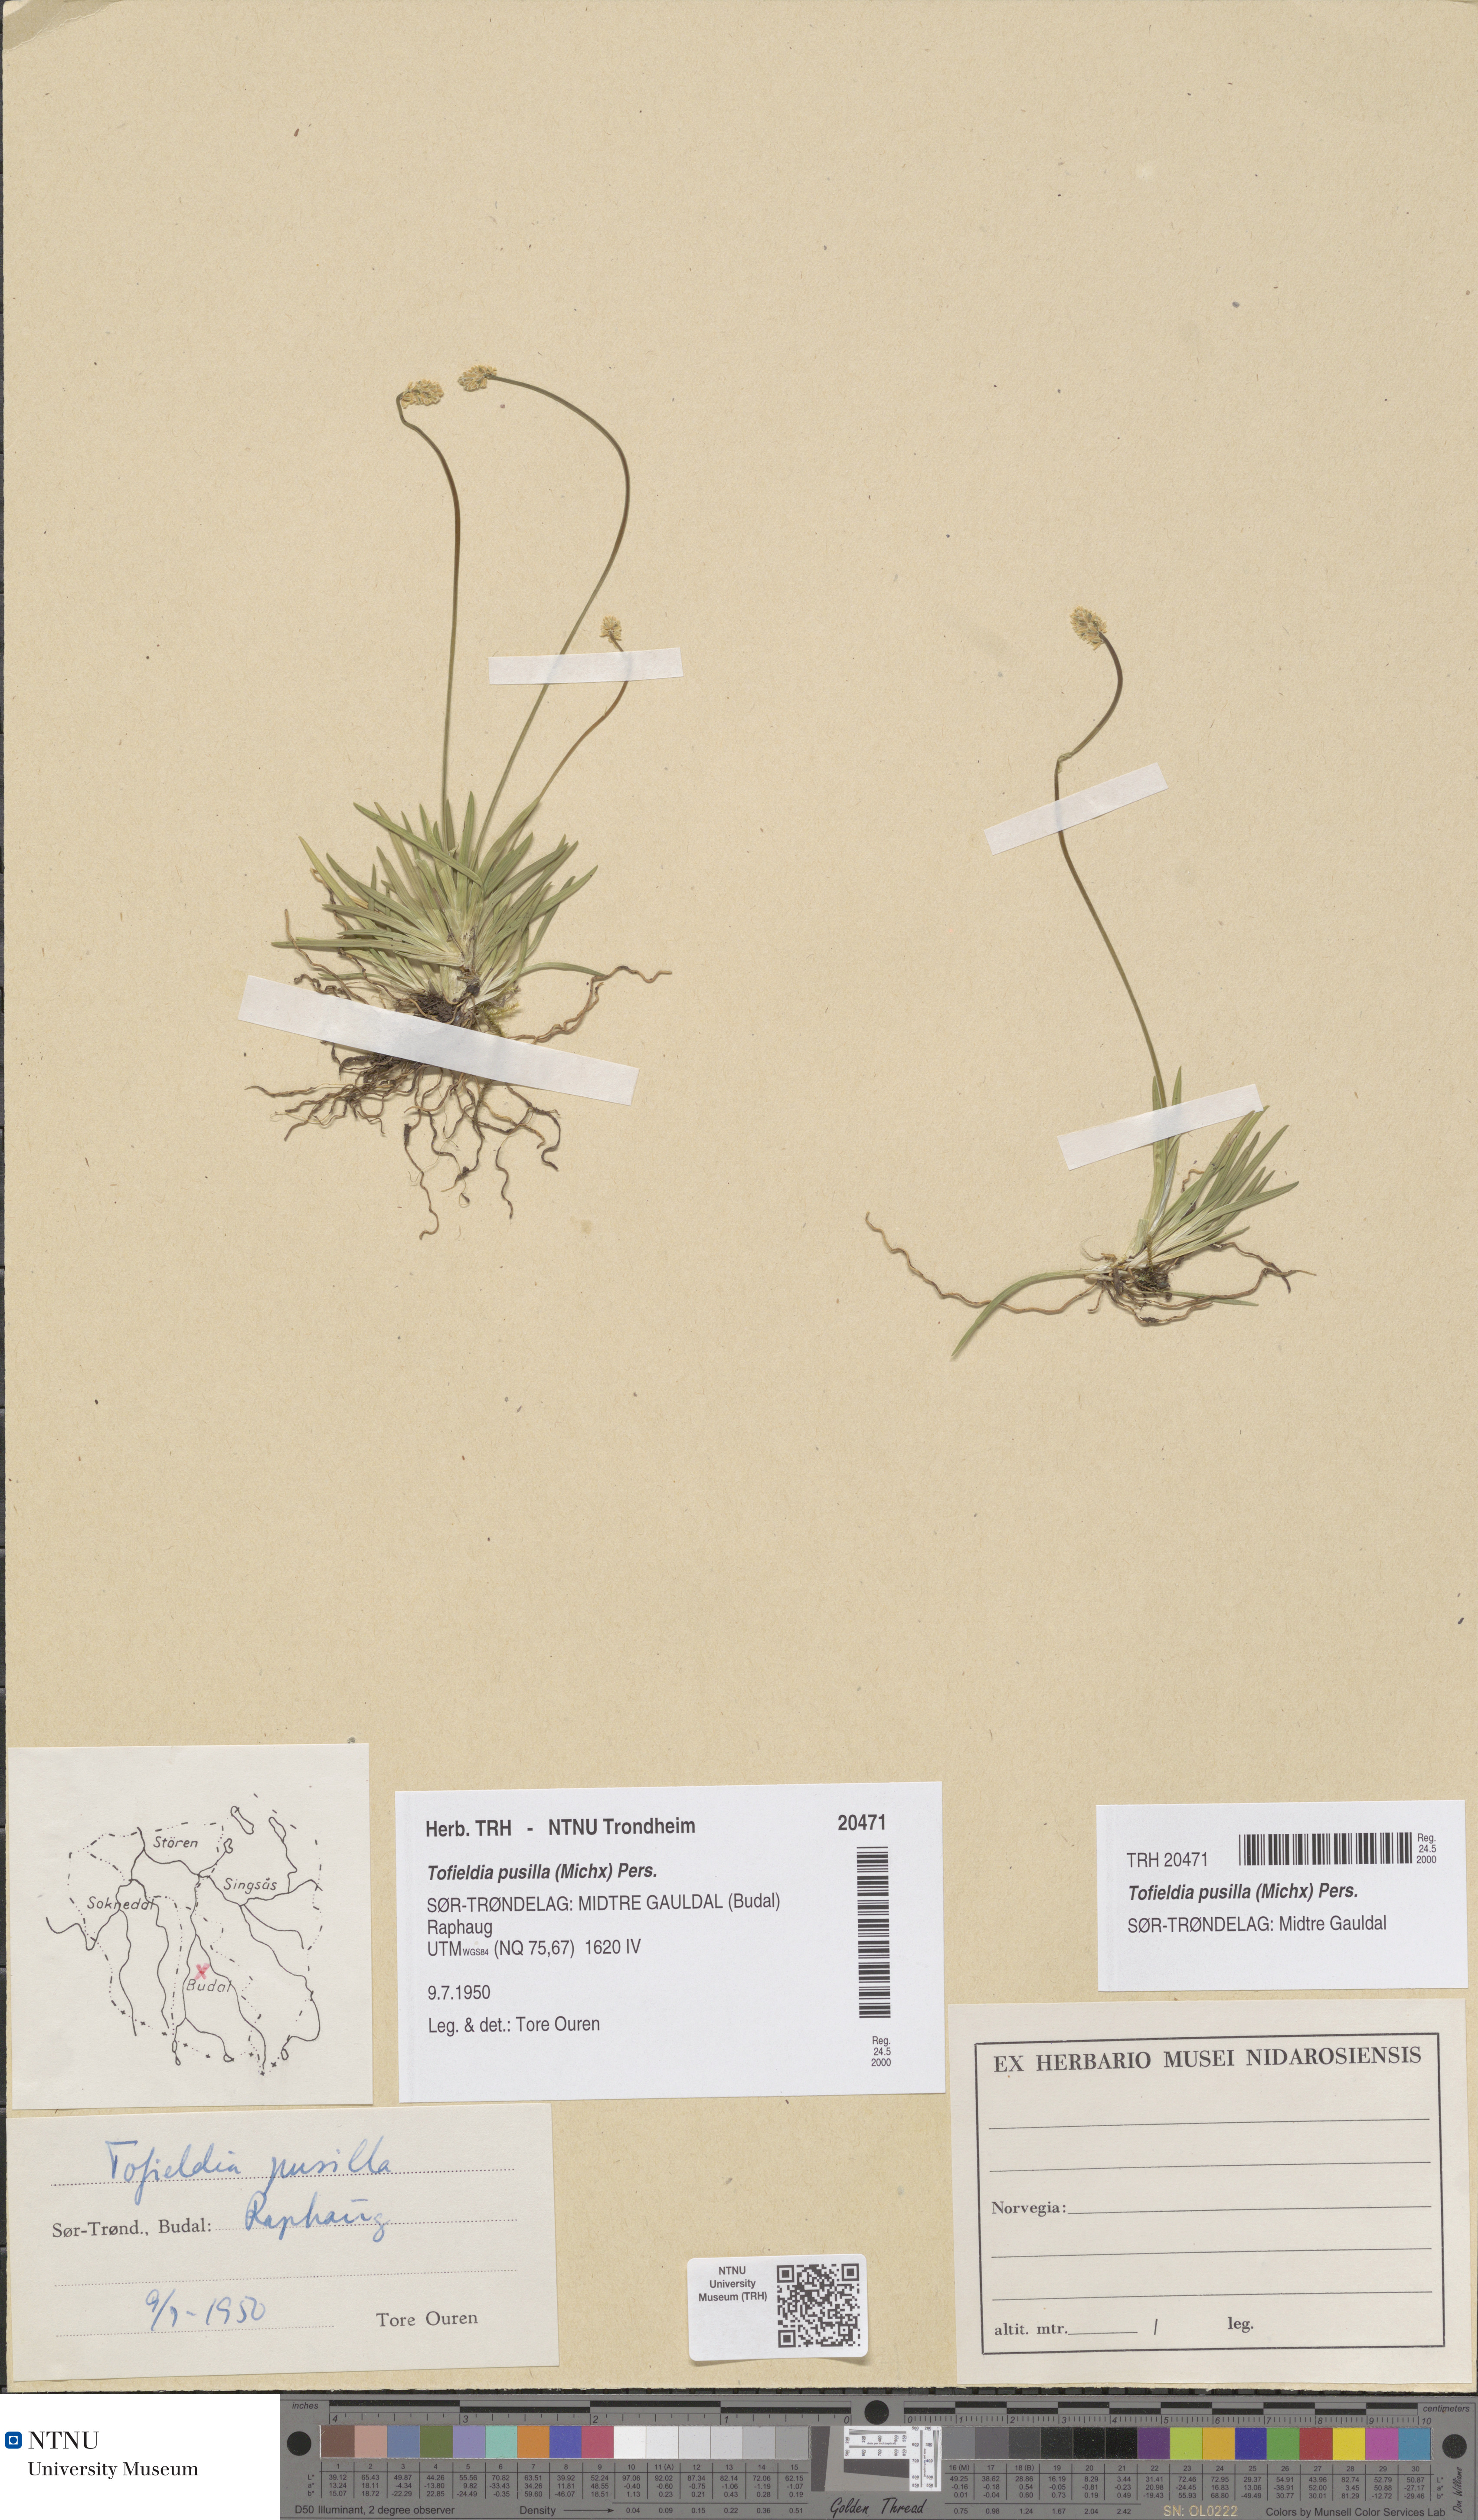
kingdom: Plantae
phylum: Tracheophyta
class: Liliopsida
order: Alismatales
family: Tofieldiaceae
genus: Tofieldia
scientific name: Tofieldia pusilla
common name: Scottish false asphodel
